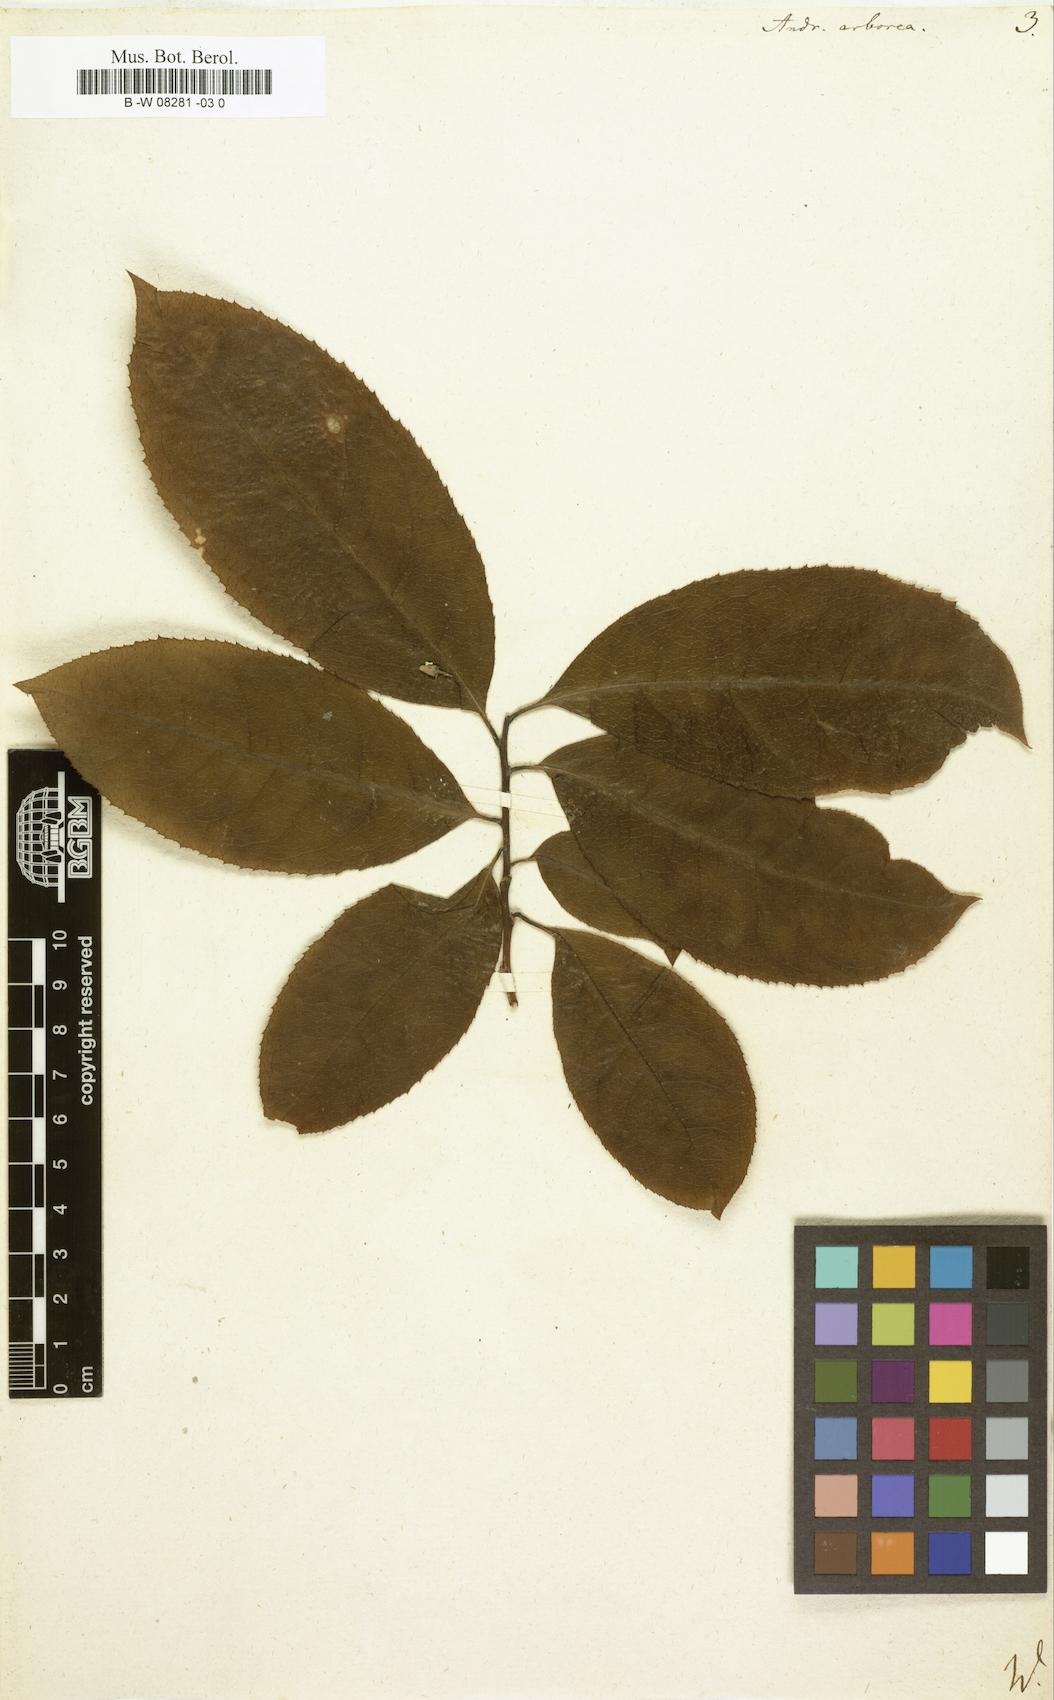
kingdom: Plantae
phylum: Tracheophyta
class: Magnoliopsida
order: Ericales
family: Ericaceae
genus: Oxydendrum
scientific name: Oxydendrum arboreum
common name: Sourwood
